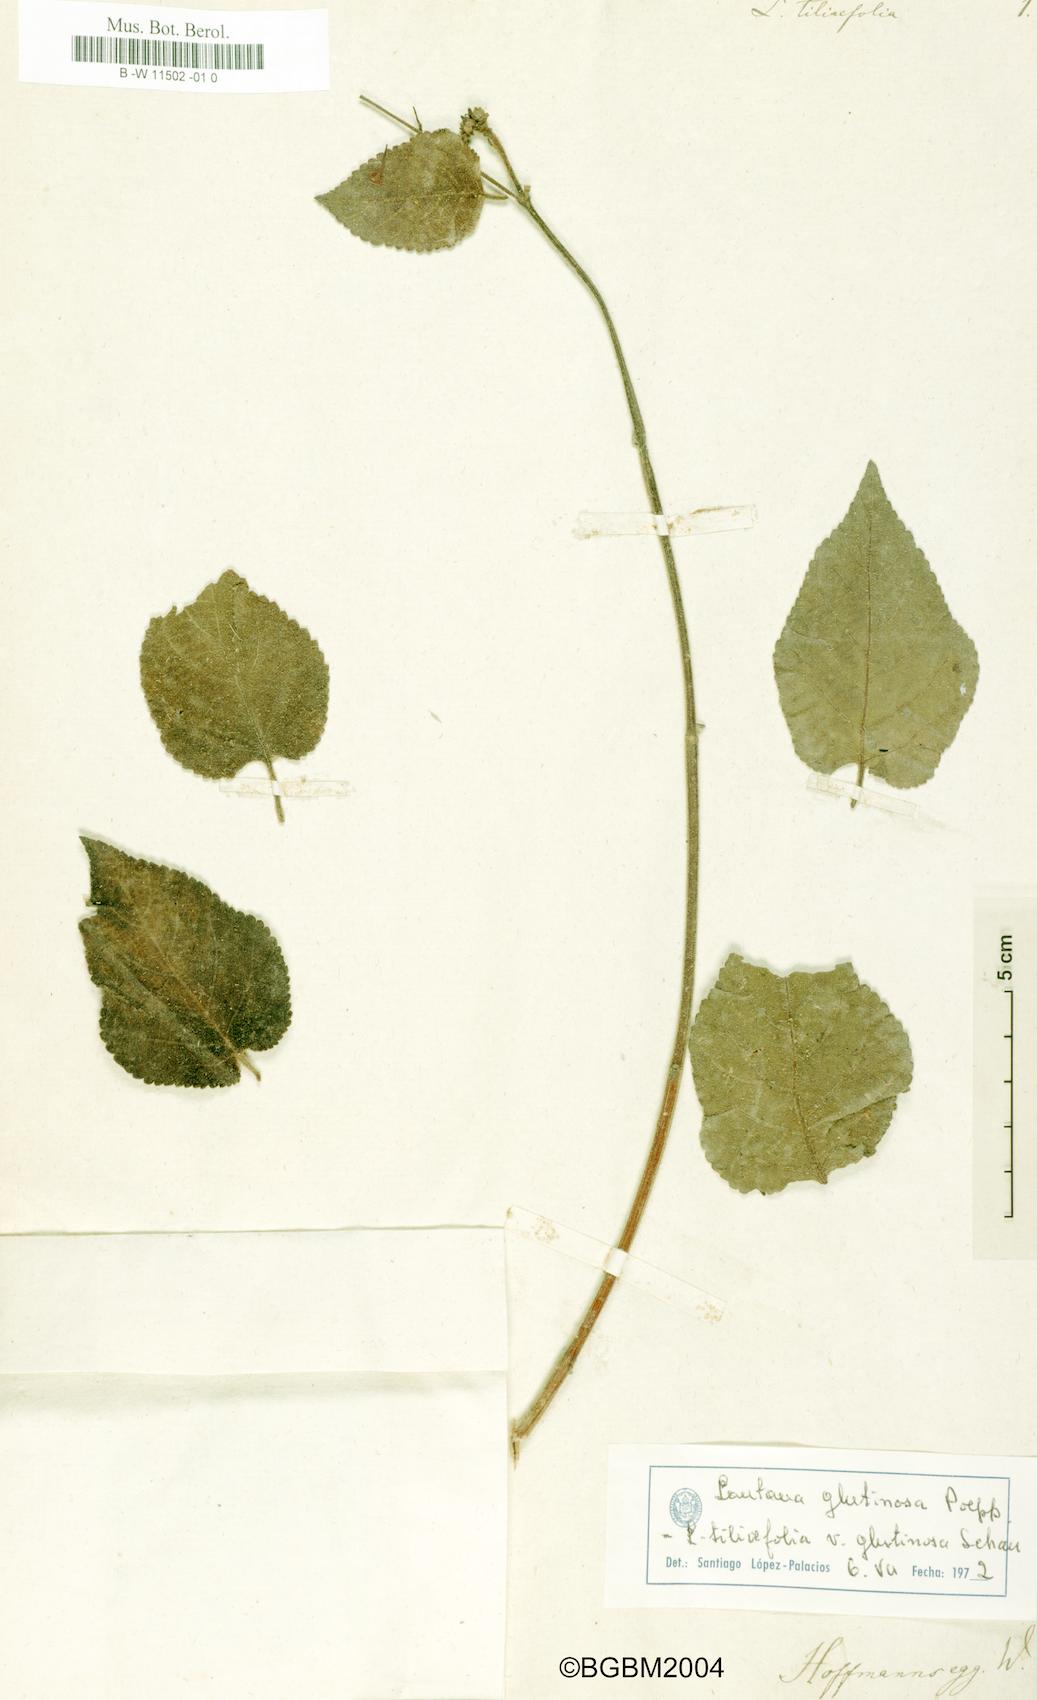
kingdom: Plantae
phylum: Tracheophyta
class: Magnoliopsida
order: Lamiales
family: Verbenaceae
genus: Lantana
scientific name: Lantana horrida
